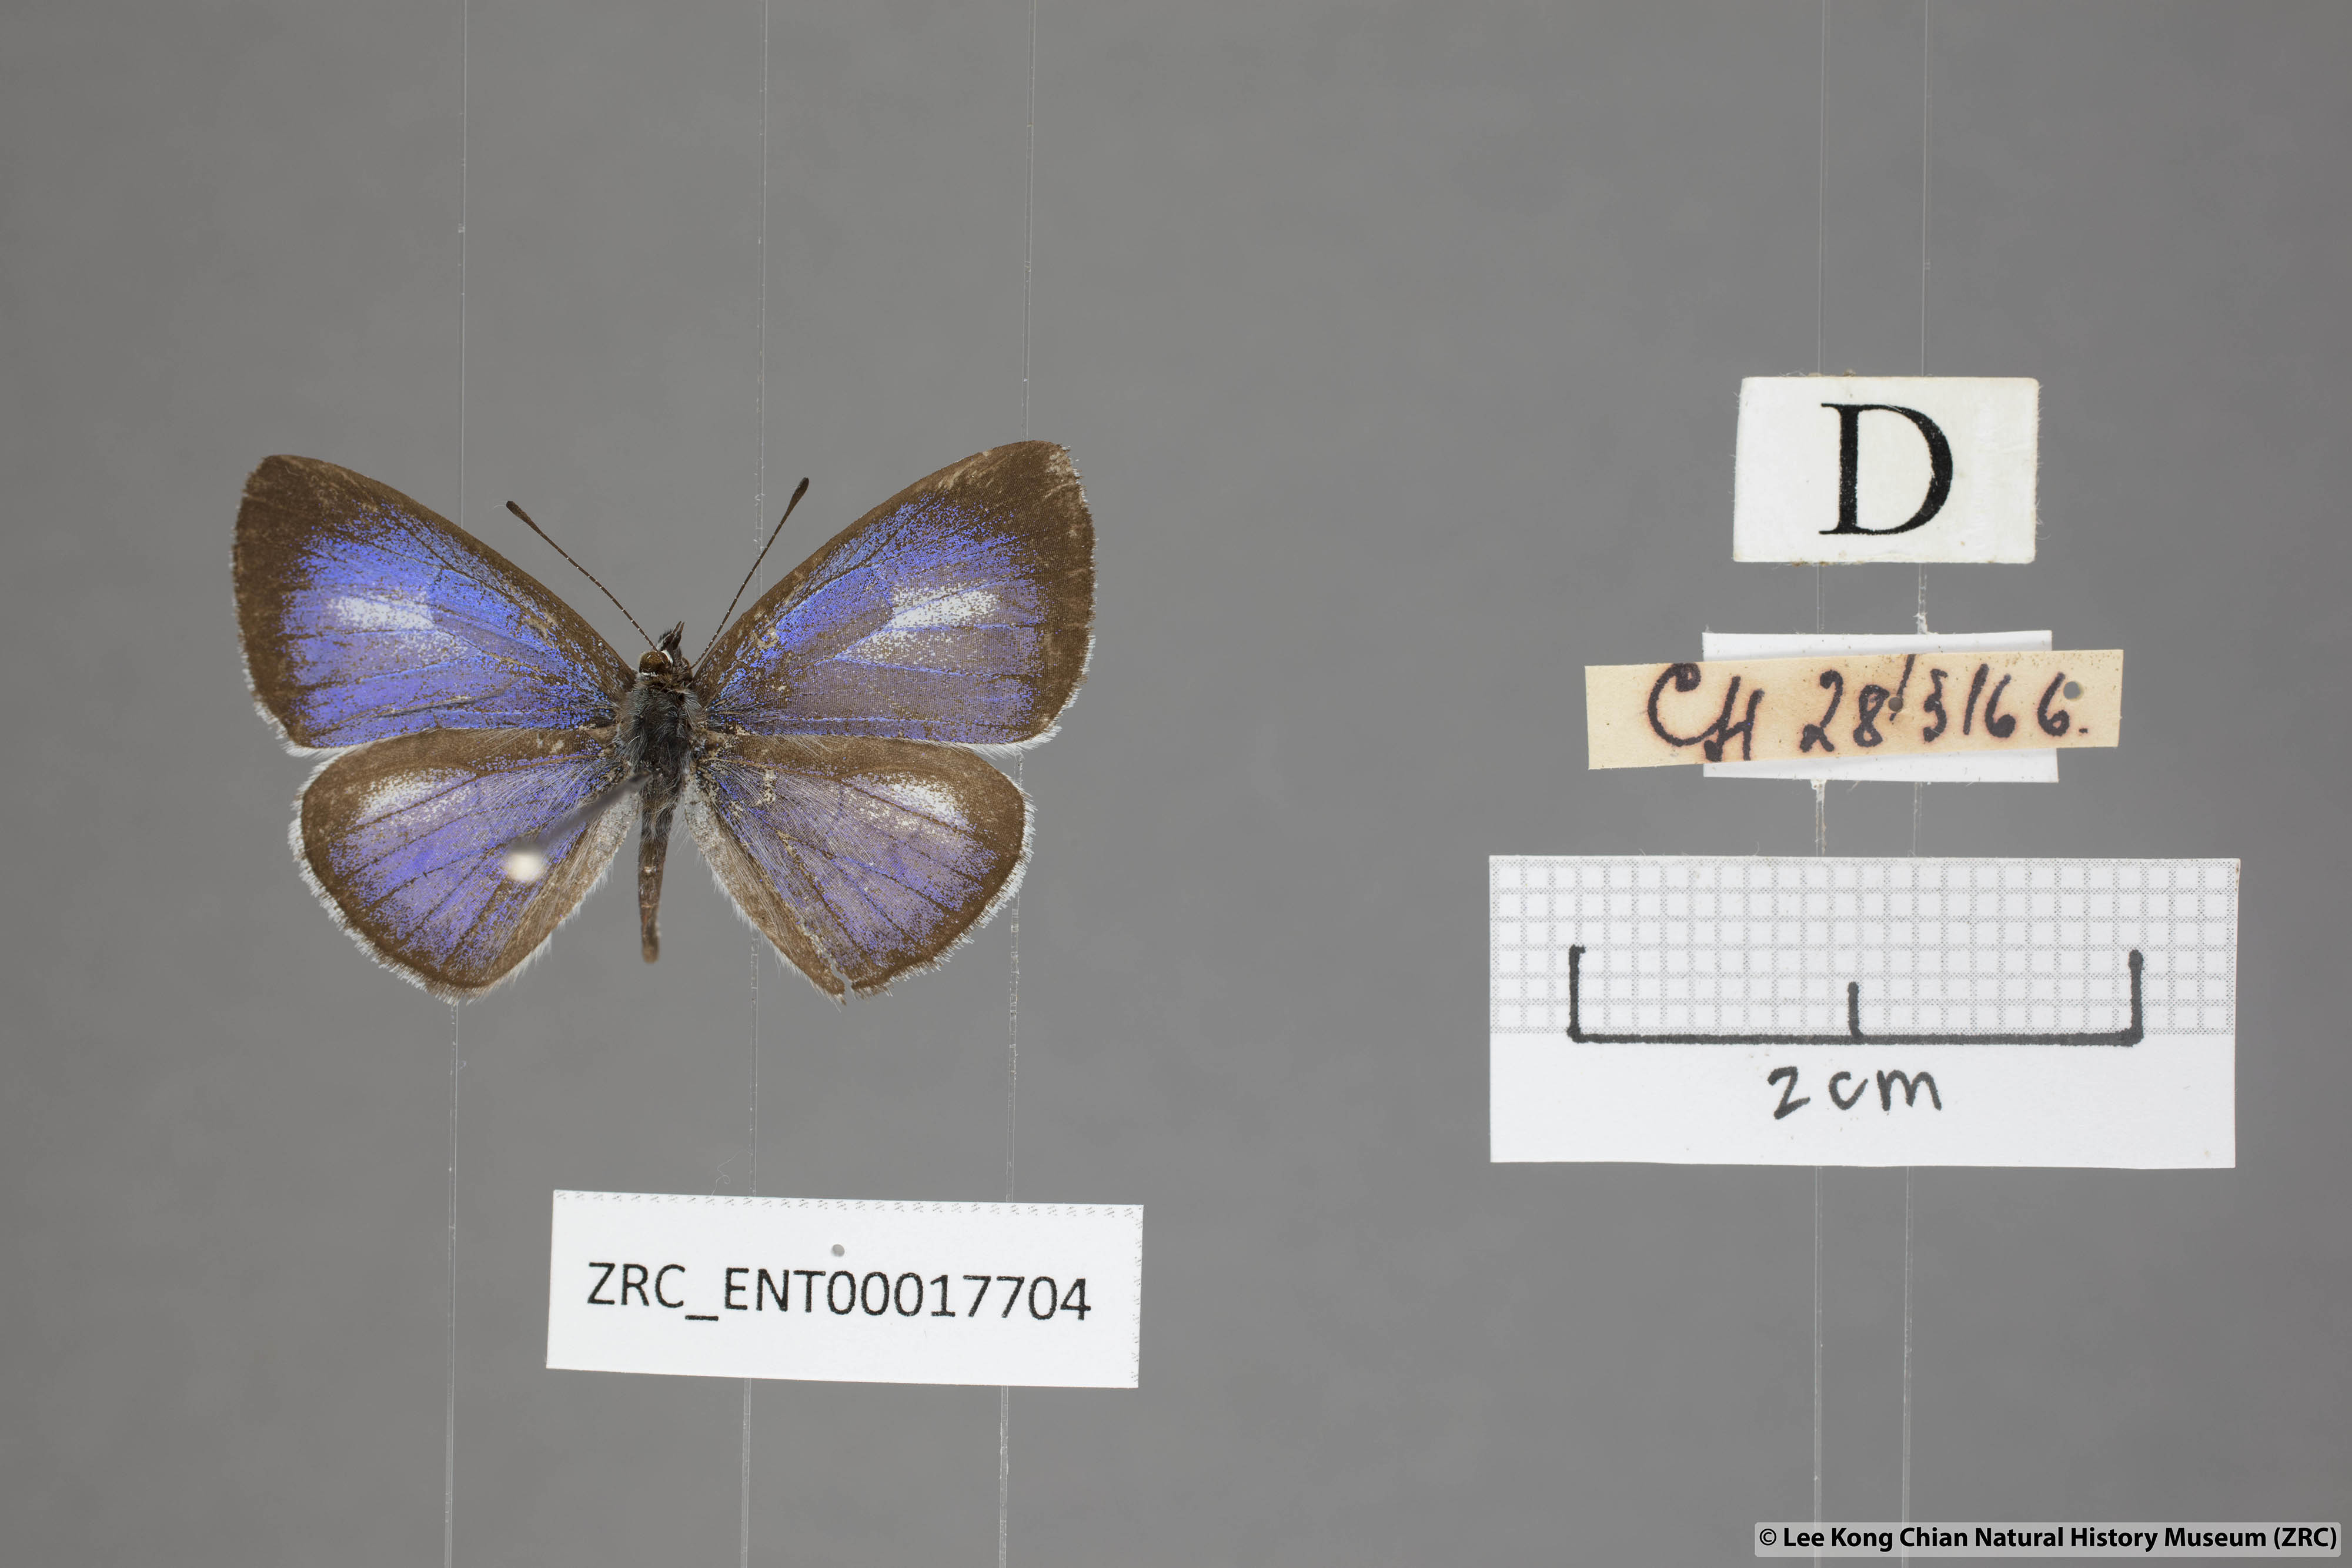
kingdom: Animalia
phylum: Arthropoda
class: Insecta
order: Lepidoptera
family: Lycaenidae
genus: Lycaenopsis
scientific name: Lycaenopsis marginata
